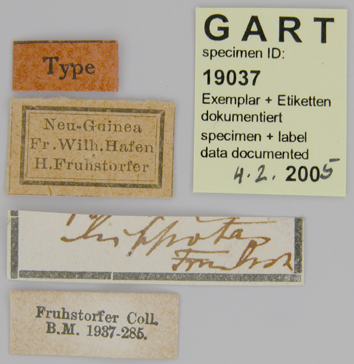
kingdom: Animalia
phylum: Arthropoda
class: Insecta
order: Lepidoptera
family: Papilionidae
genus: Papilio
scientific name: Papilio euchenor
